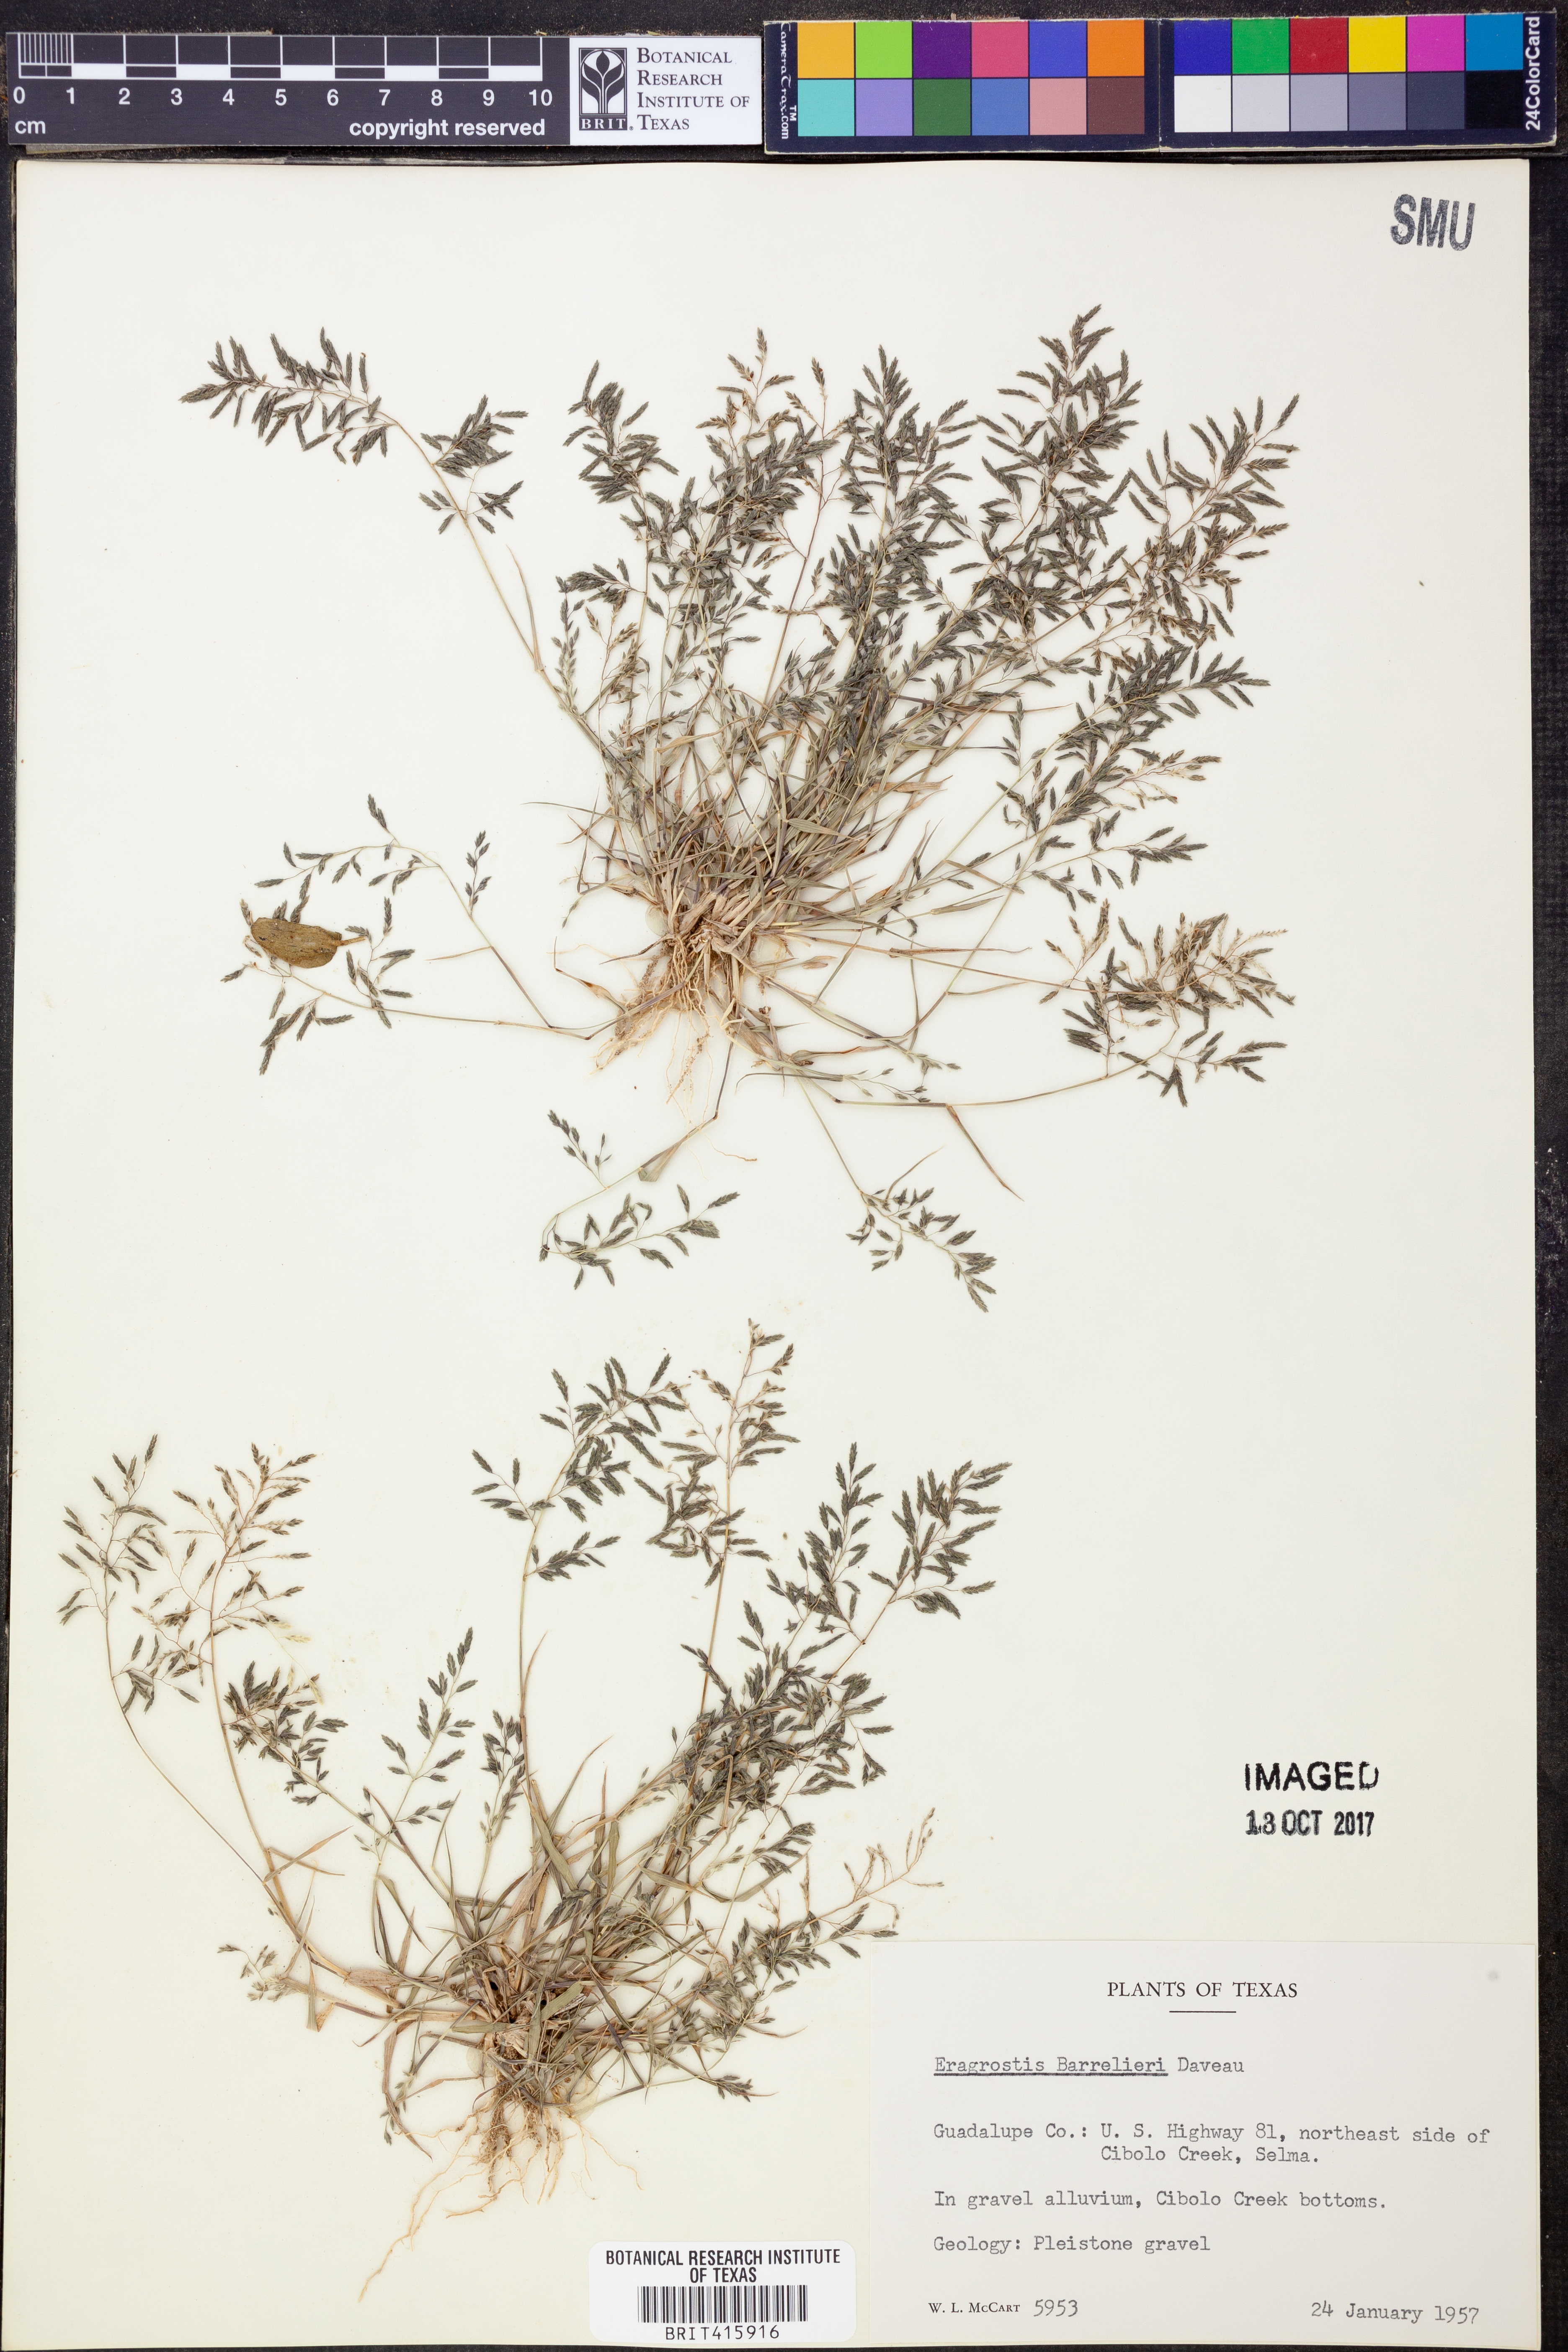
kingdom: Plantae
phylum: Tracheophyta
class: Liliopsida
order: Poales
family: Poaceae
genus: Eragrostis
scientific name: Eragrostis barrelieri
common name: Mediterranean lovegrass
